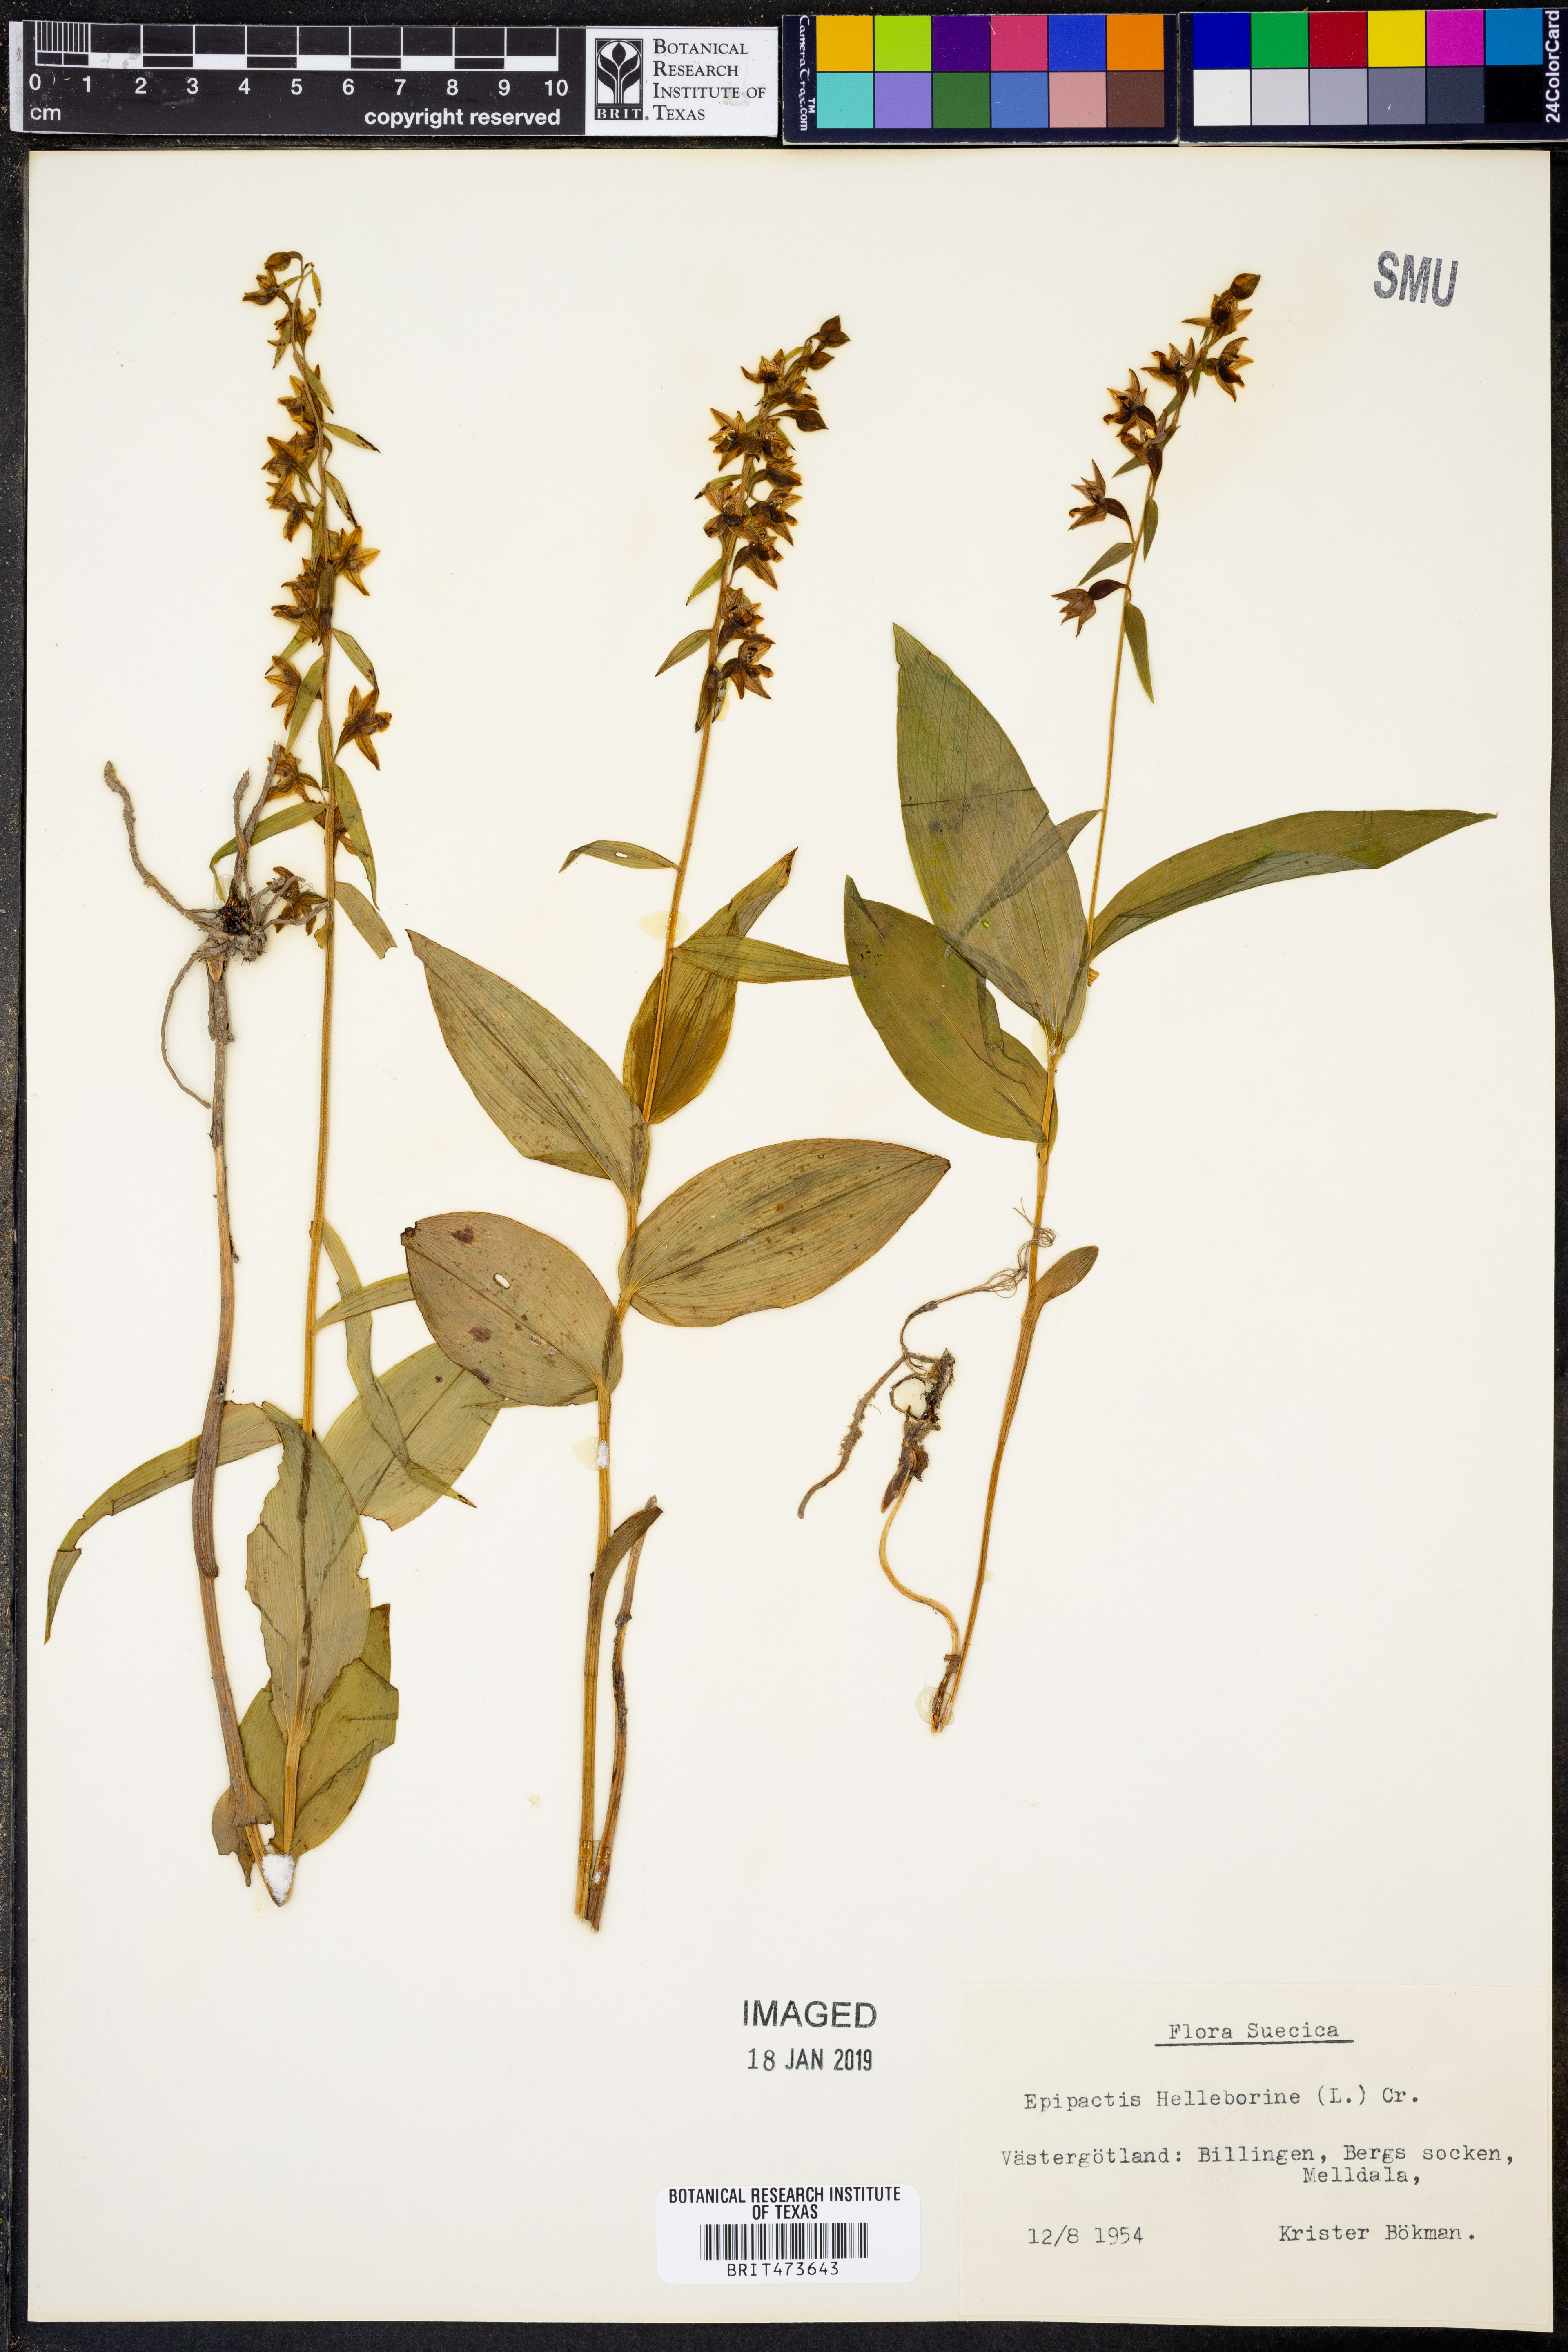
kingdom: Plantae
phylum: Tracheophyta
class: Liliopsida
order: Asparagales
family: Orchidaceae
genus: Epipactis
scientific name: Epipactis helleborine
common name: Broad-leaved helleborine
